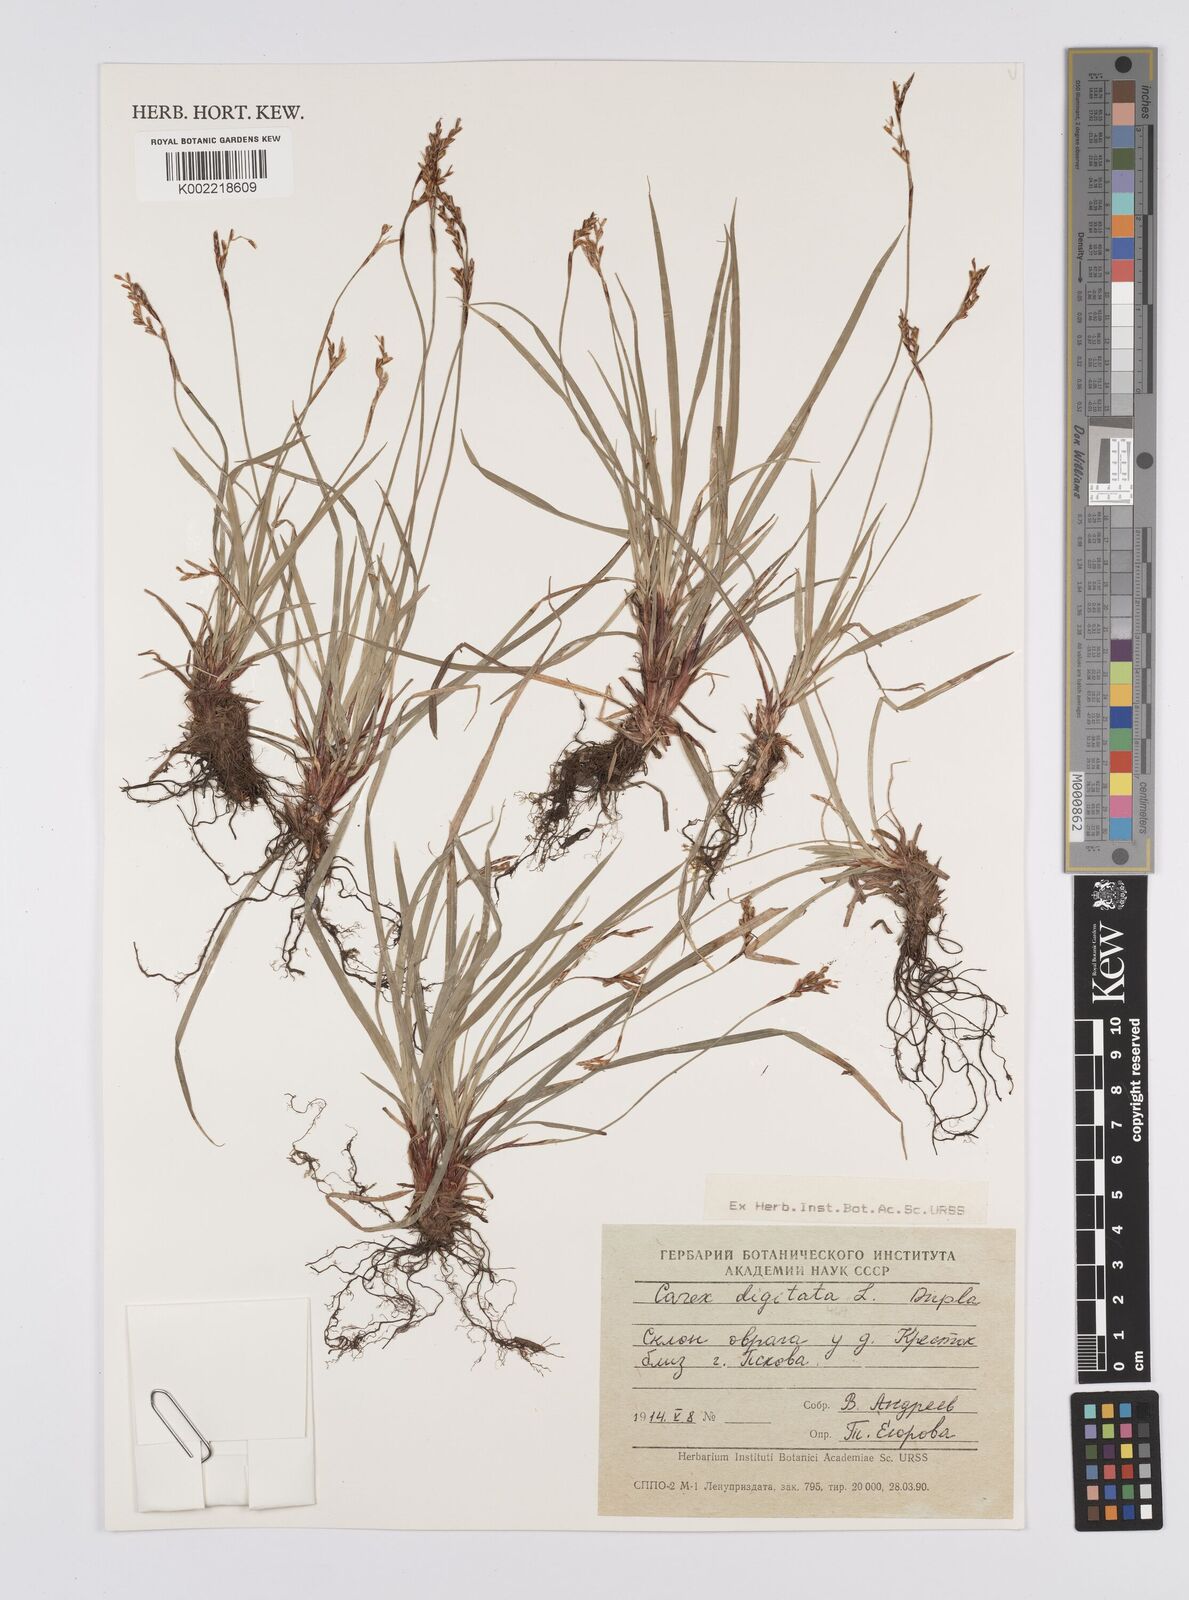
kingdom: Plantae
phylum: Tracheophyta
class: Liliopsida
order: Poales
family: Cyperaceae
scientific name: Cyperaceae
